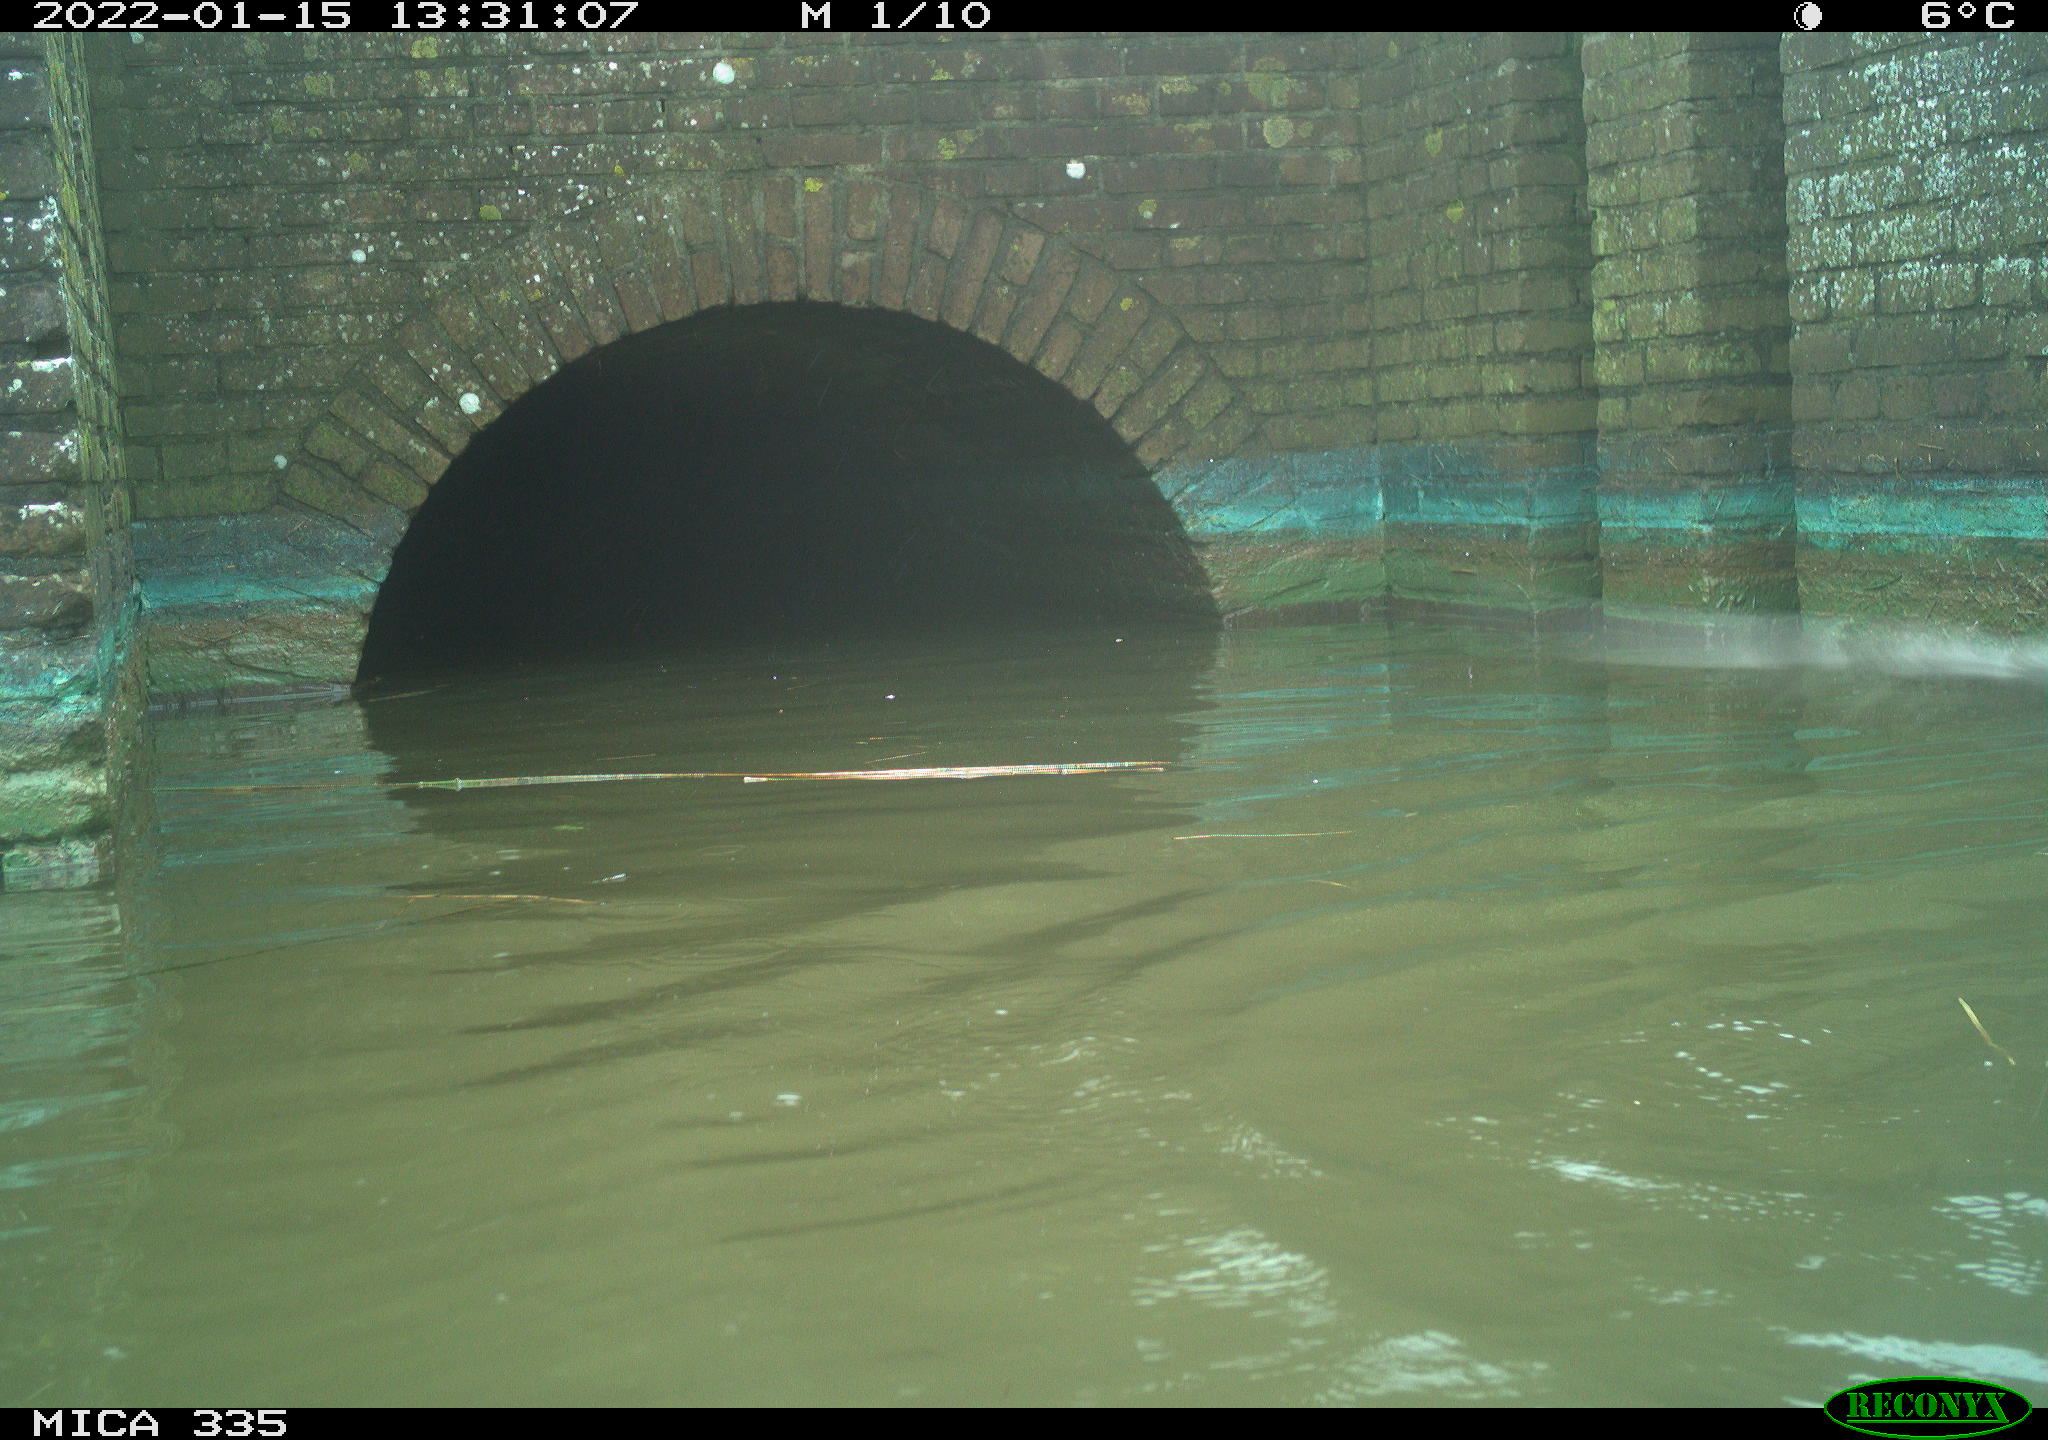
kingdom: Animalia
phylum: Chordata
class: Aves
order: Anseriformes
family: Anatidae
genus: Anas
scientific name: Anas platyrhynchos
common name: Mallard
